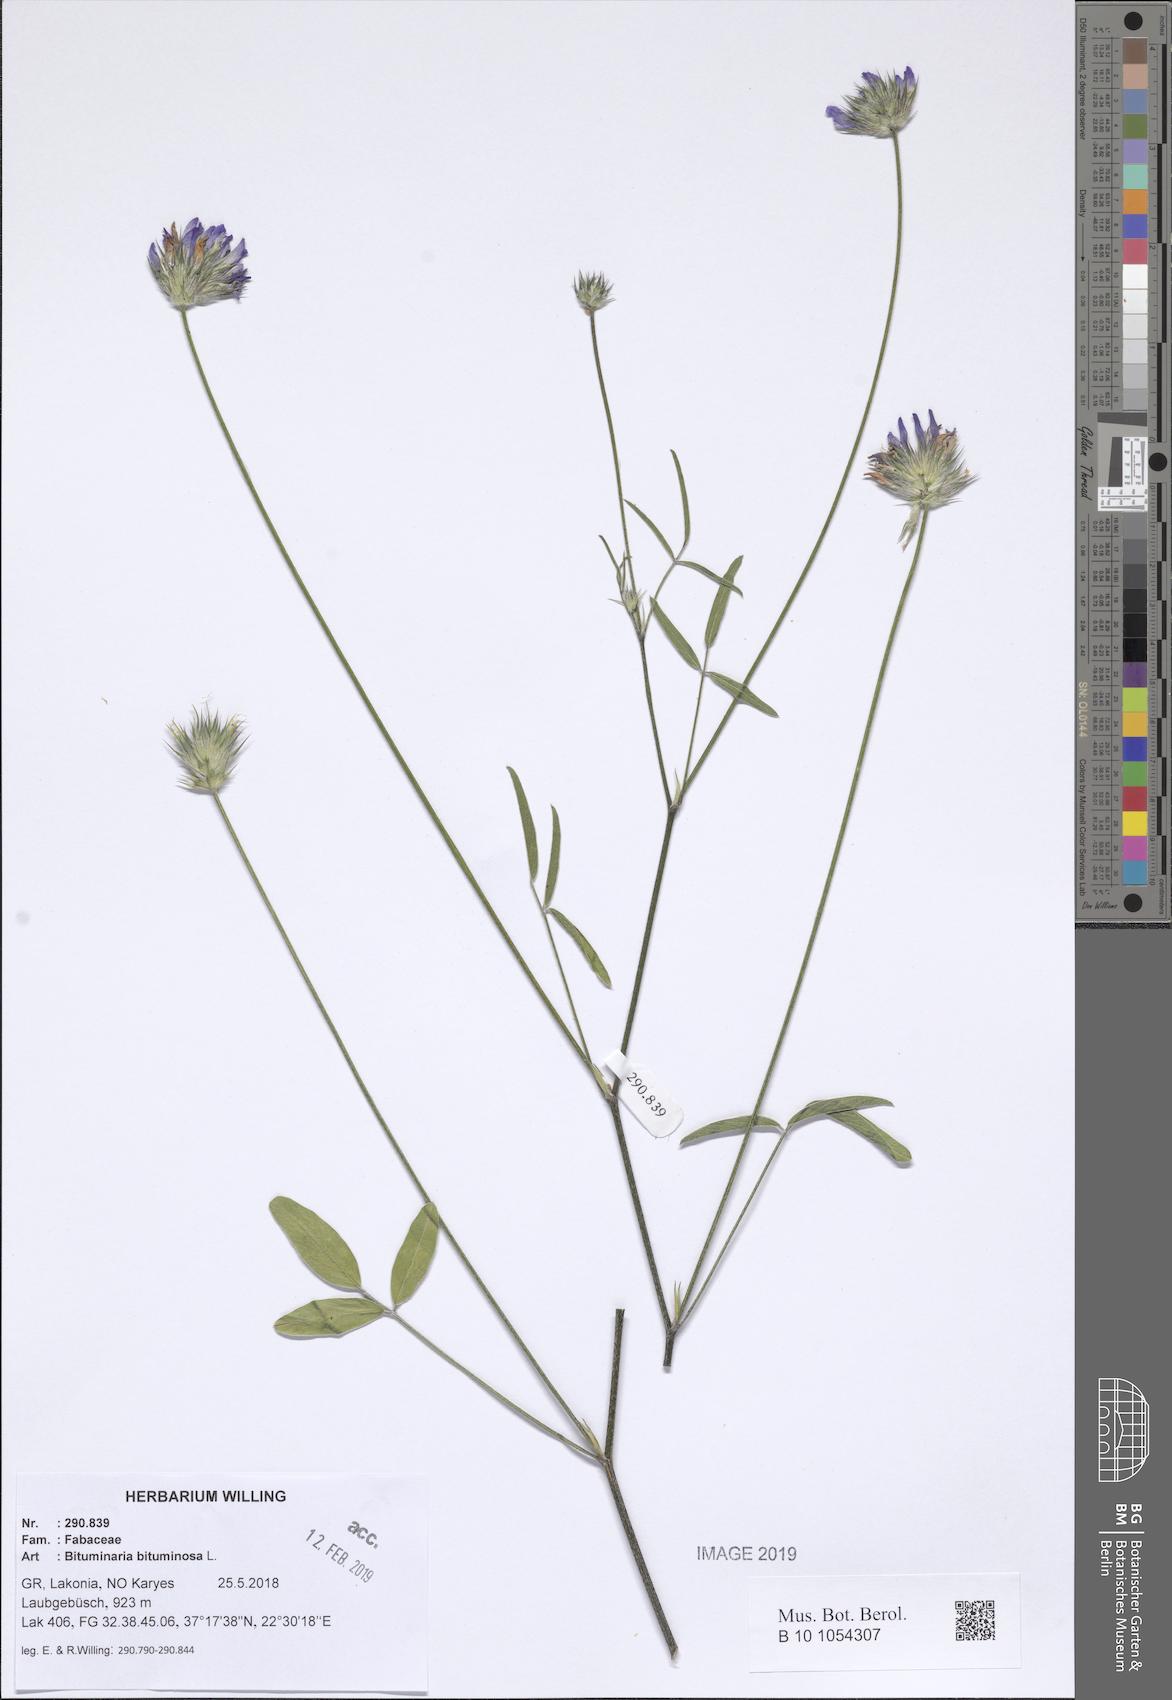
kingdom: Plantae
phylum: Tracheophyta
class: Magnoliopsida
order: Fabales
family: Fabaceae
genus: Bituminaria
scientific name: Bituminaria bituminosa
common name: Arabian pea
